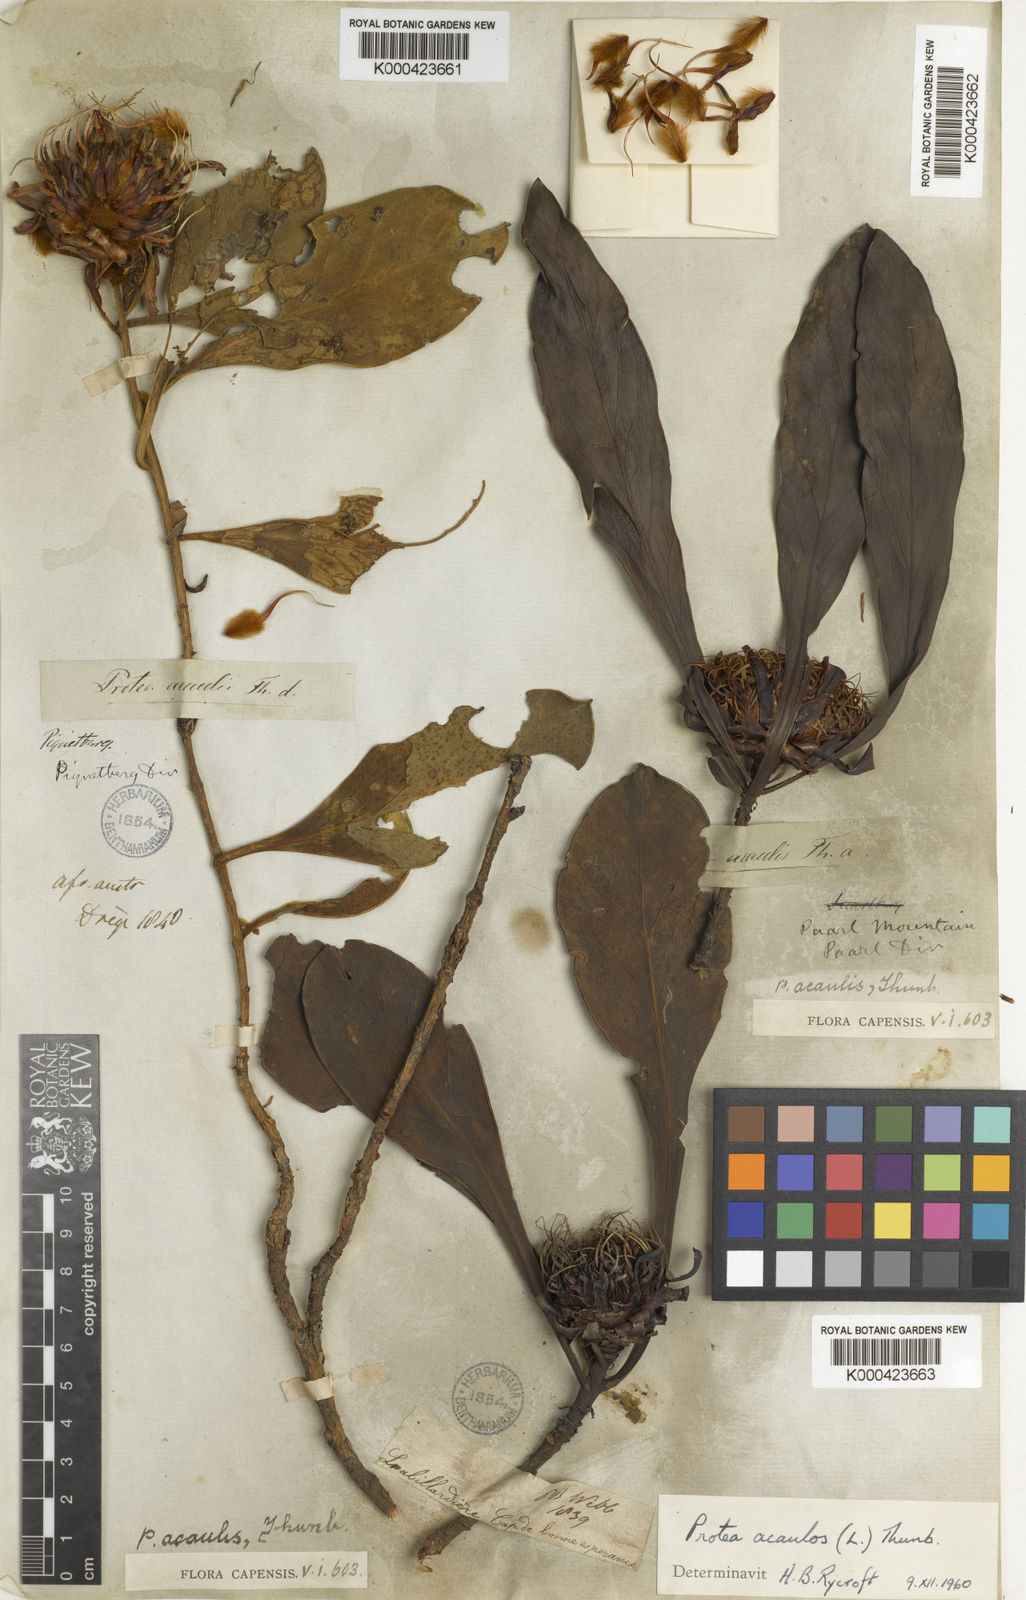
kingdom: Plantae
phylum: Tracheophyta
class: Magnoliopsida
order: Proteales
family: Proteaceae
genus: Protea
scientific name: Protea
